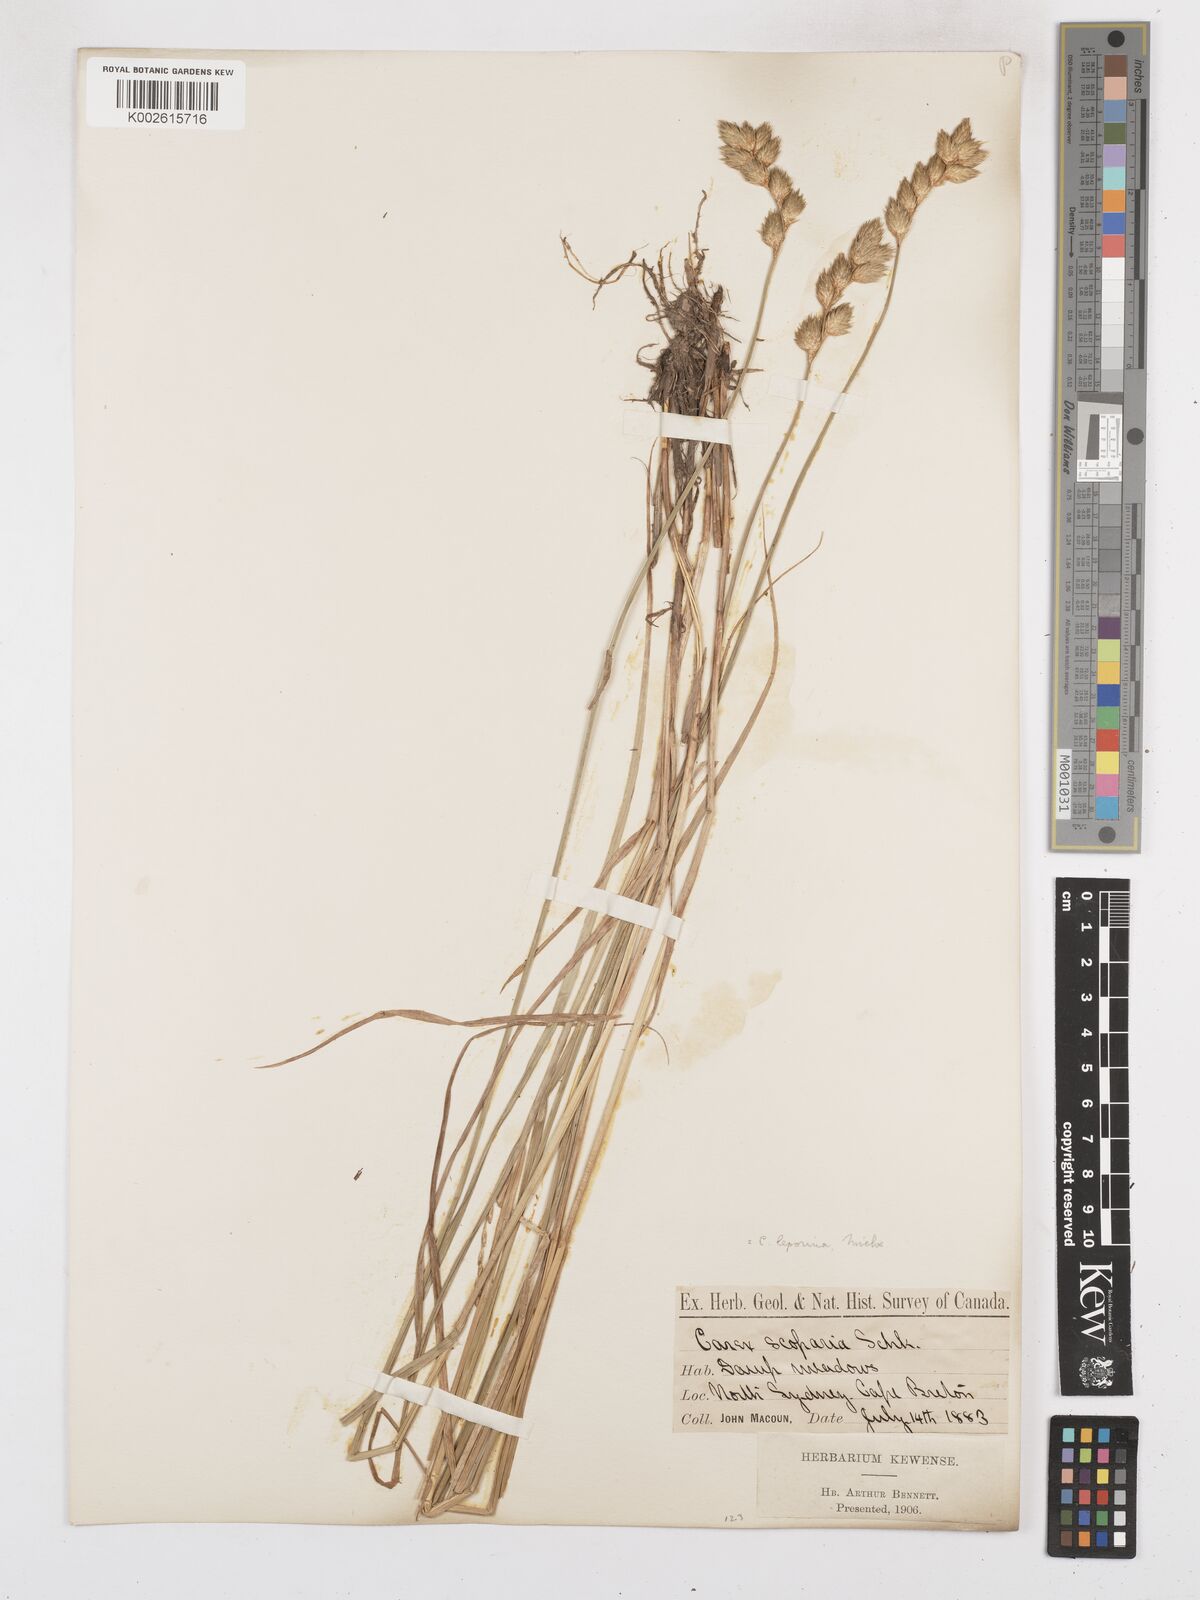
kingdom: Plantae
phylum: Tracheophyta
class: Liliopsida
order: Poales
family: Cyperaceae
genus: Carex
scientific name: Carex leporina
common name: Oval sedge
